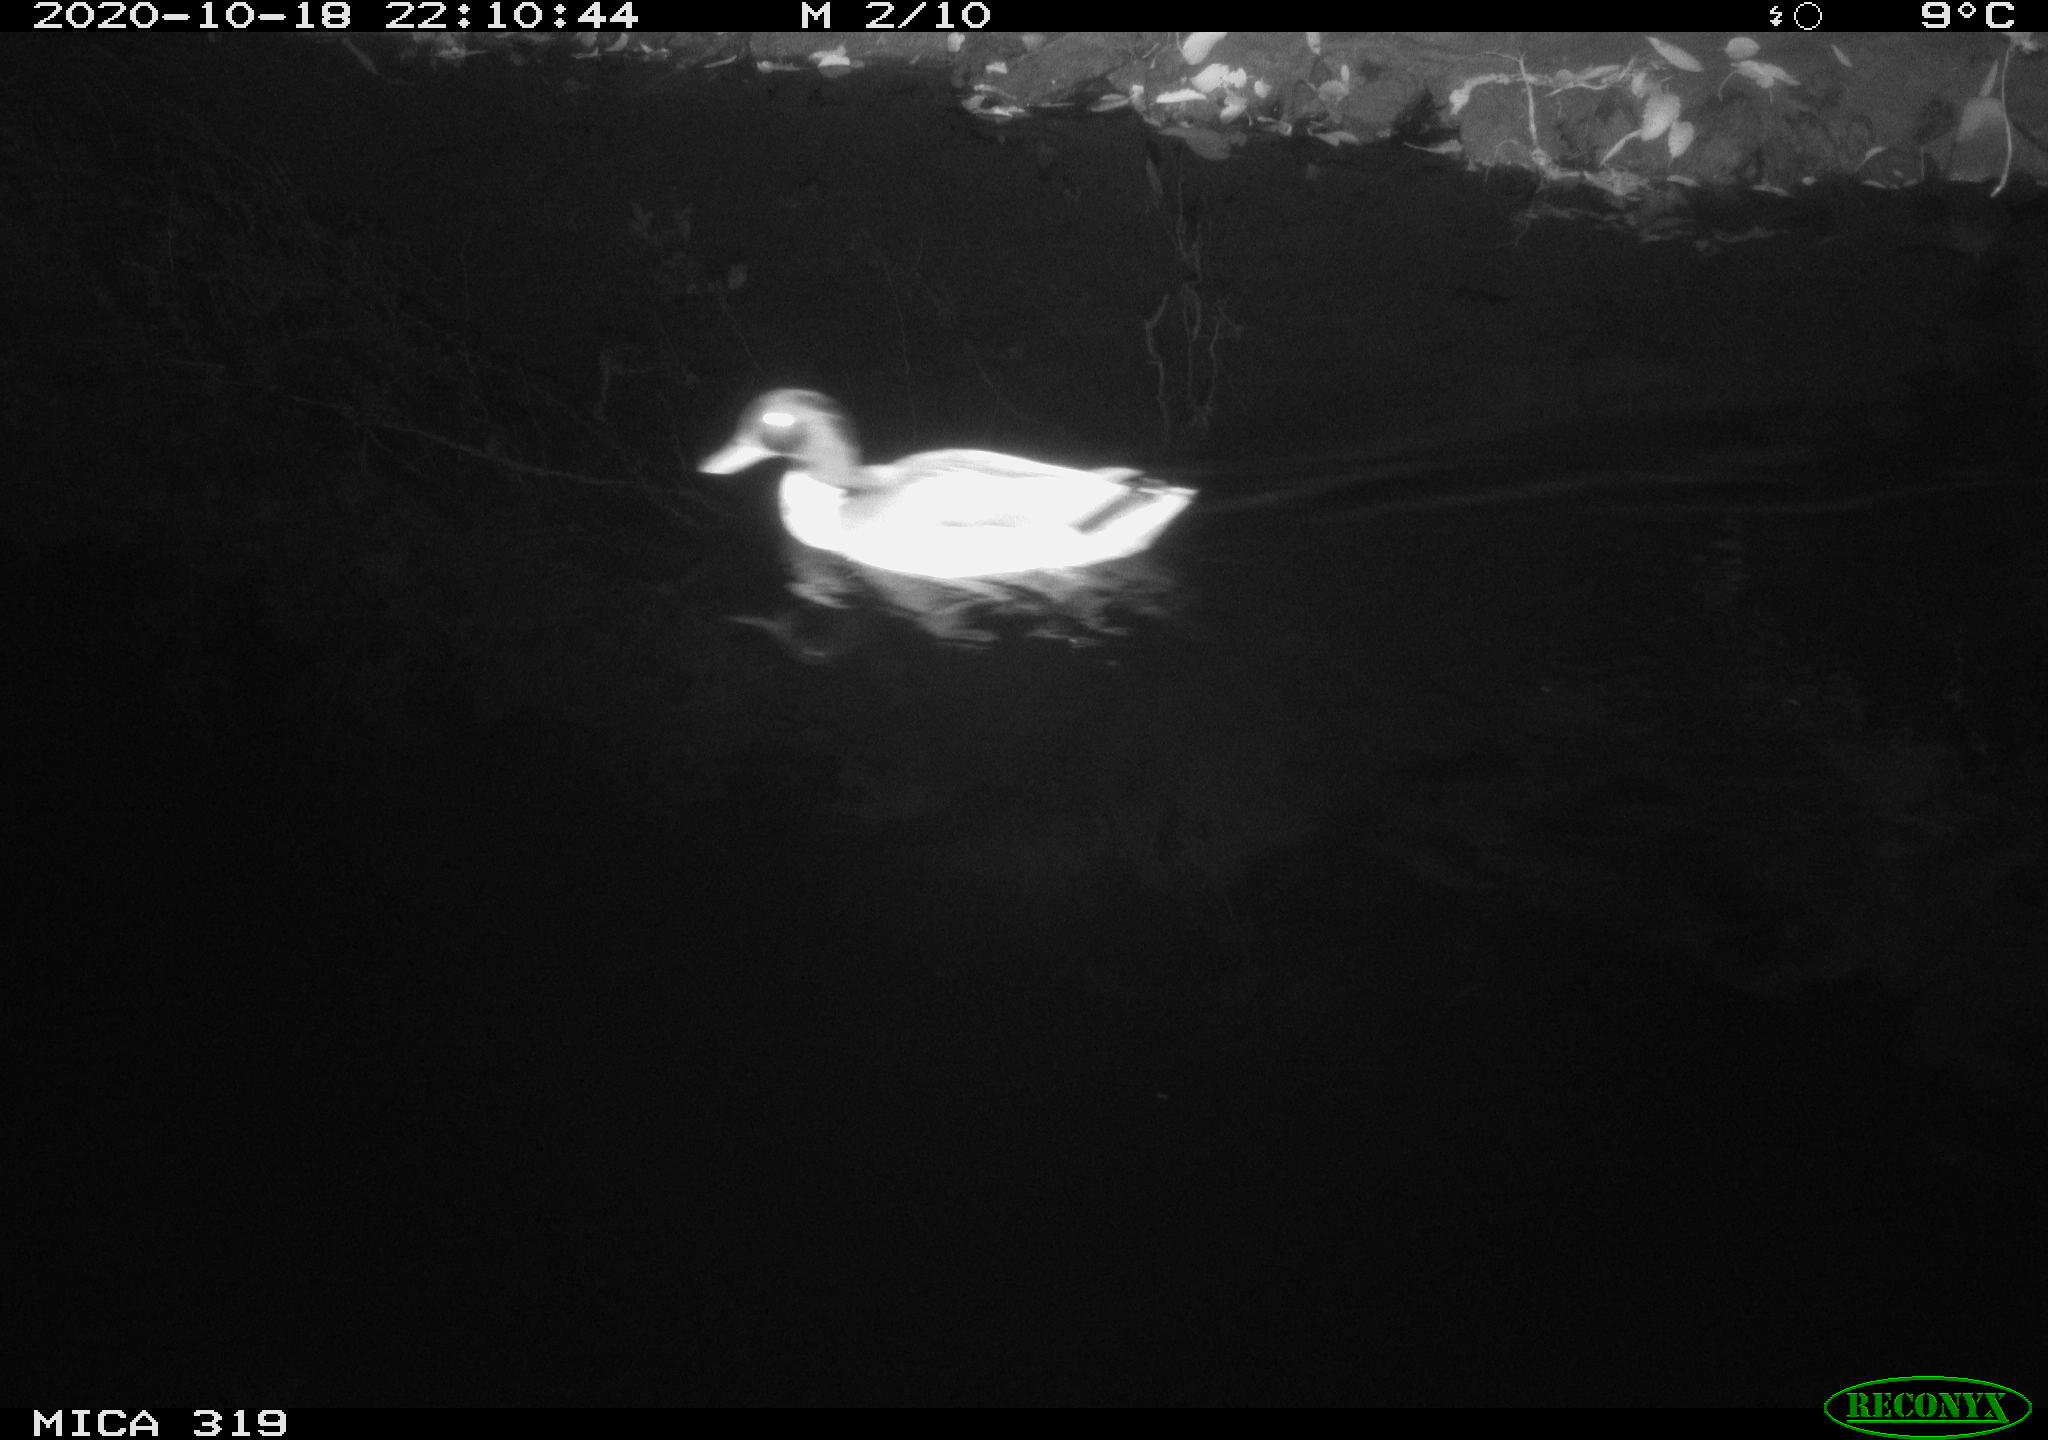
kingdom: Animalia
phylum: Chordata
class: Aves
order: Anseriformes
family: Anatidae
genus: Anas
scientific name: Anas platyrhynchos
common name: Mallard
